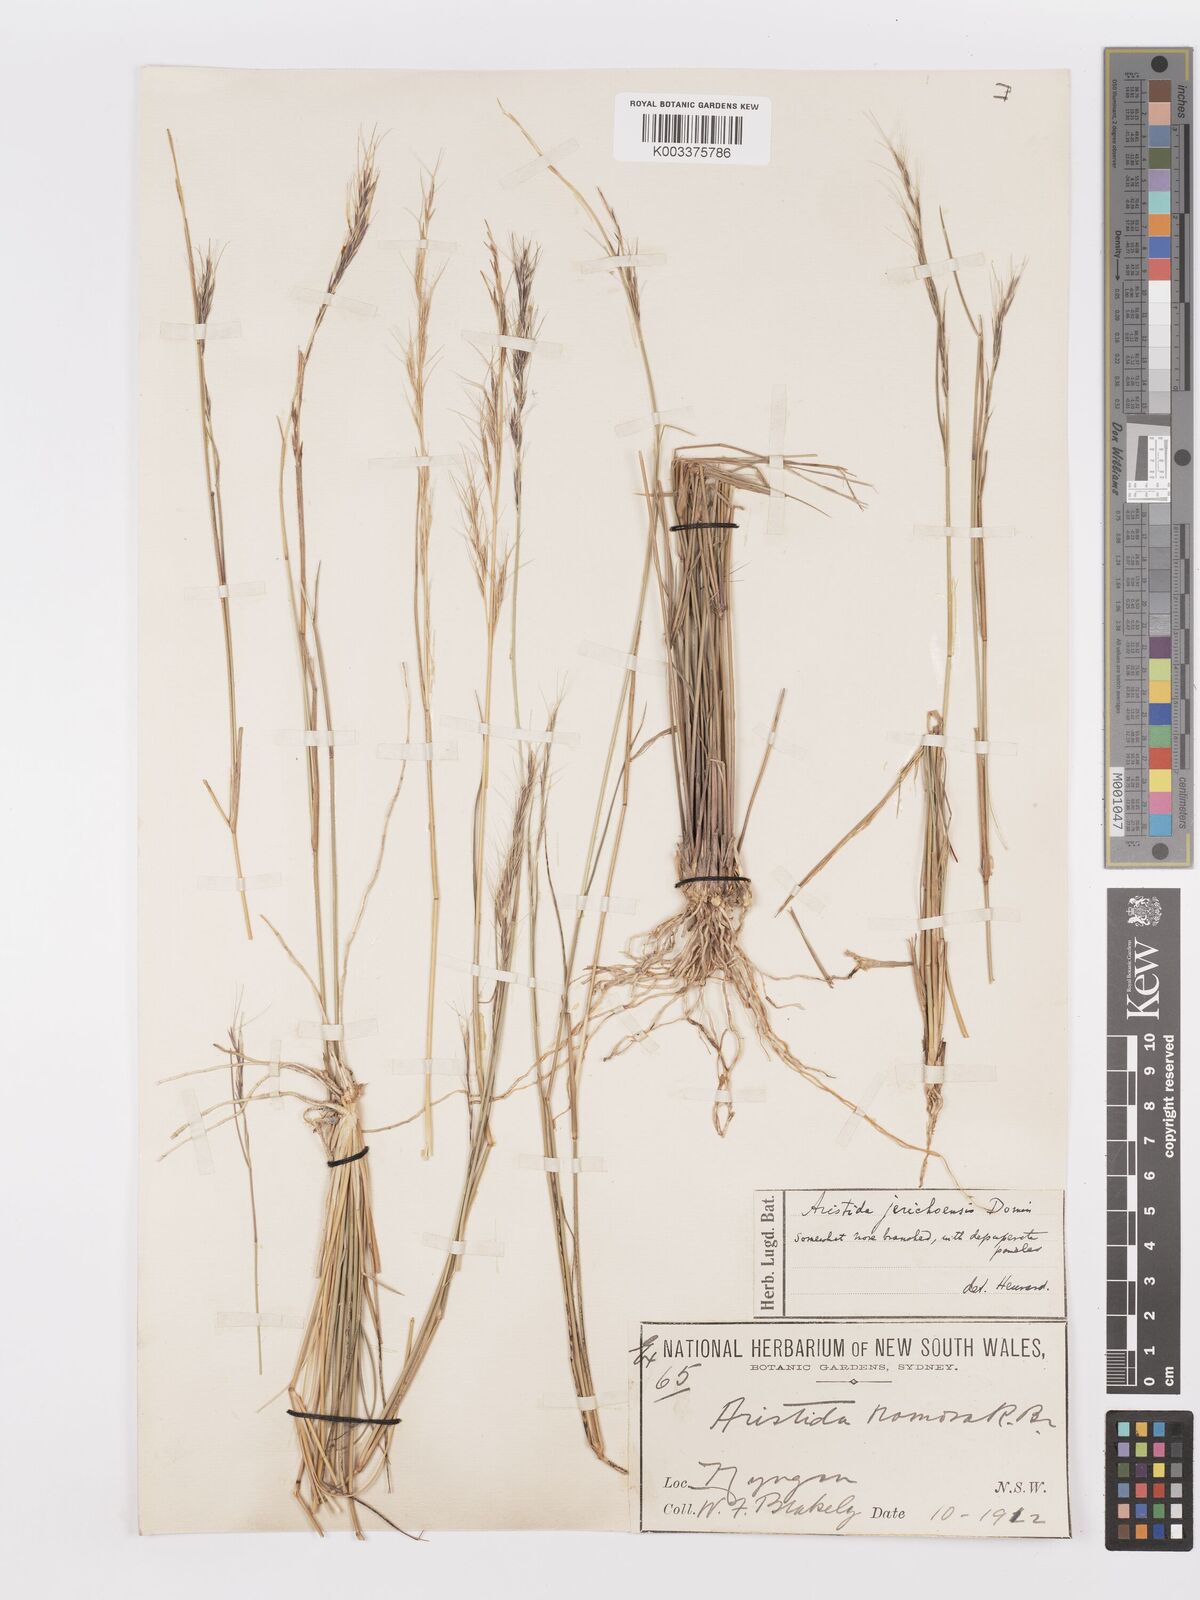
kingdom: Plantae
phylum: Tracheophyta
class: Liliopsida
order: Poales
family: Poaceae
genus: Aristida
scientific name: Aristida
